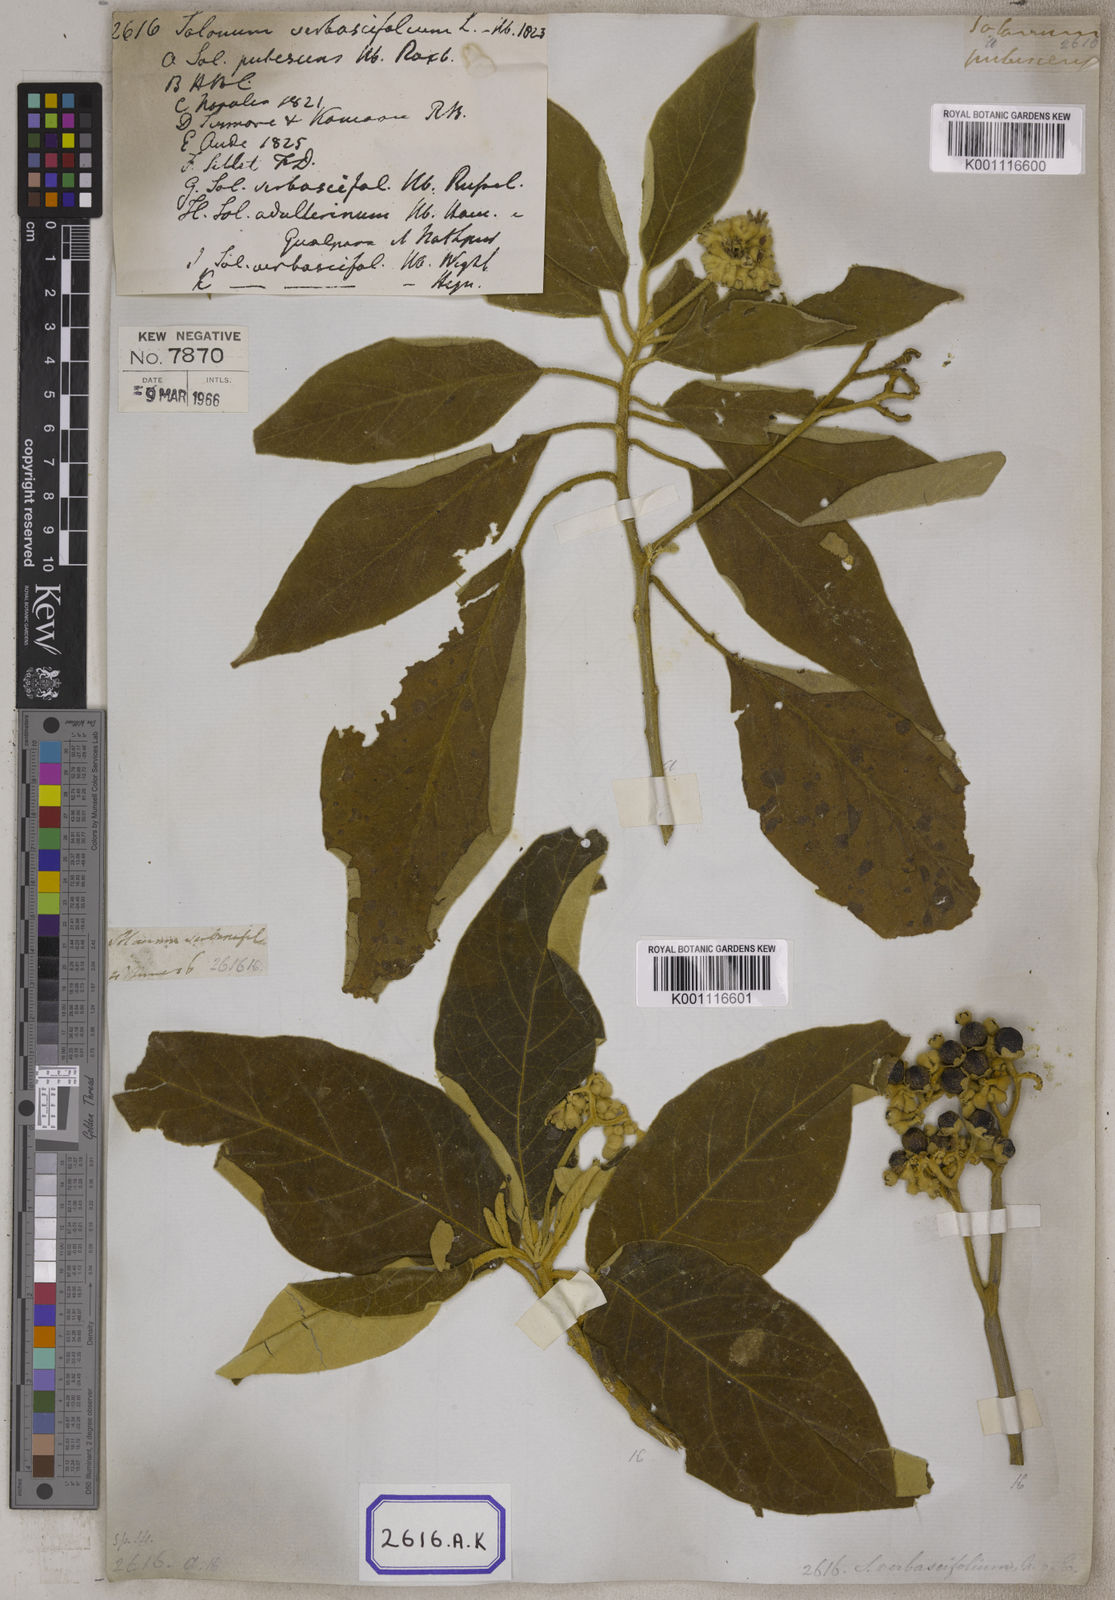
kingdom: Plantae
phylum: Tracheophyta
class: Magnoliopsida
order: Solanales
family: Solanaceae
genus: Solanum
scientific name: Solanum donianum
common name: Mullein nightshade
